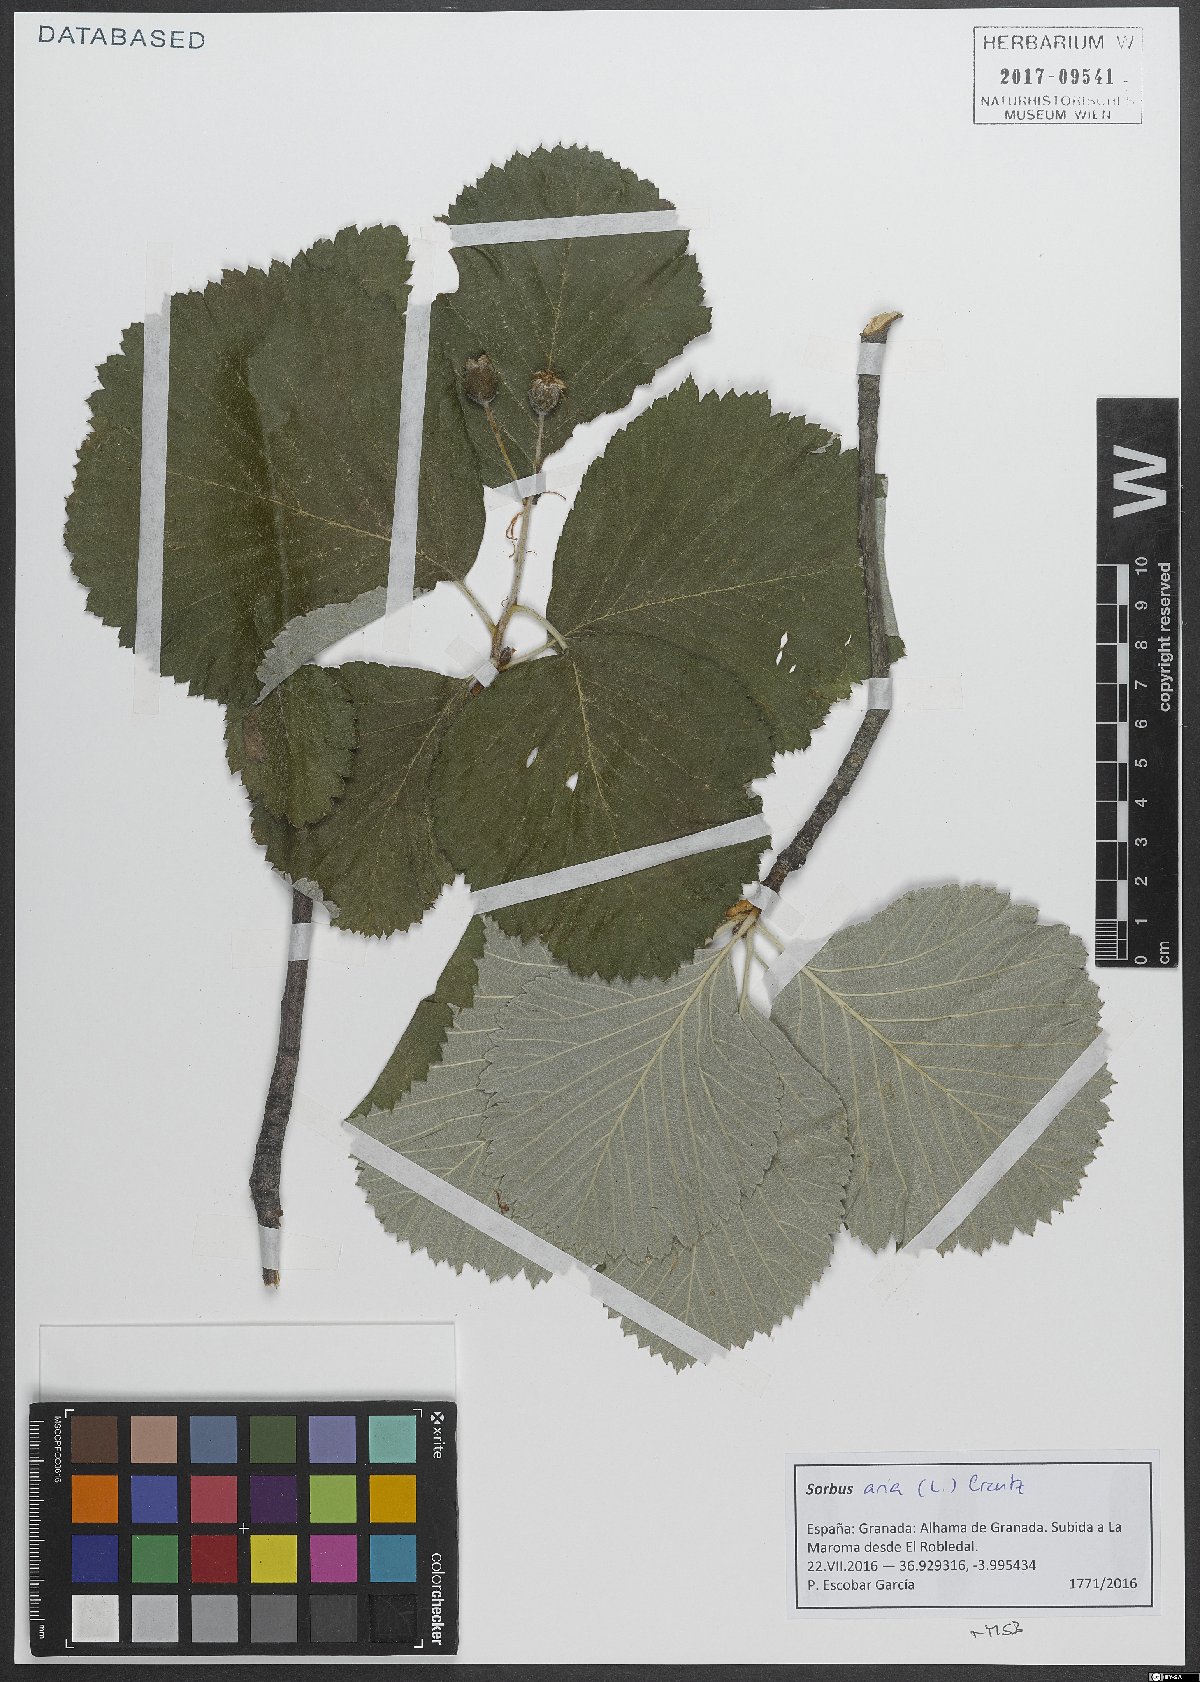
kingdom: Plantae
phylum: Tracheophyta
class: Magnoliopsida
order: Rosales
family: Rosaceae
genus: Aria
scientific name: Aria edulis
